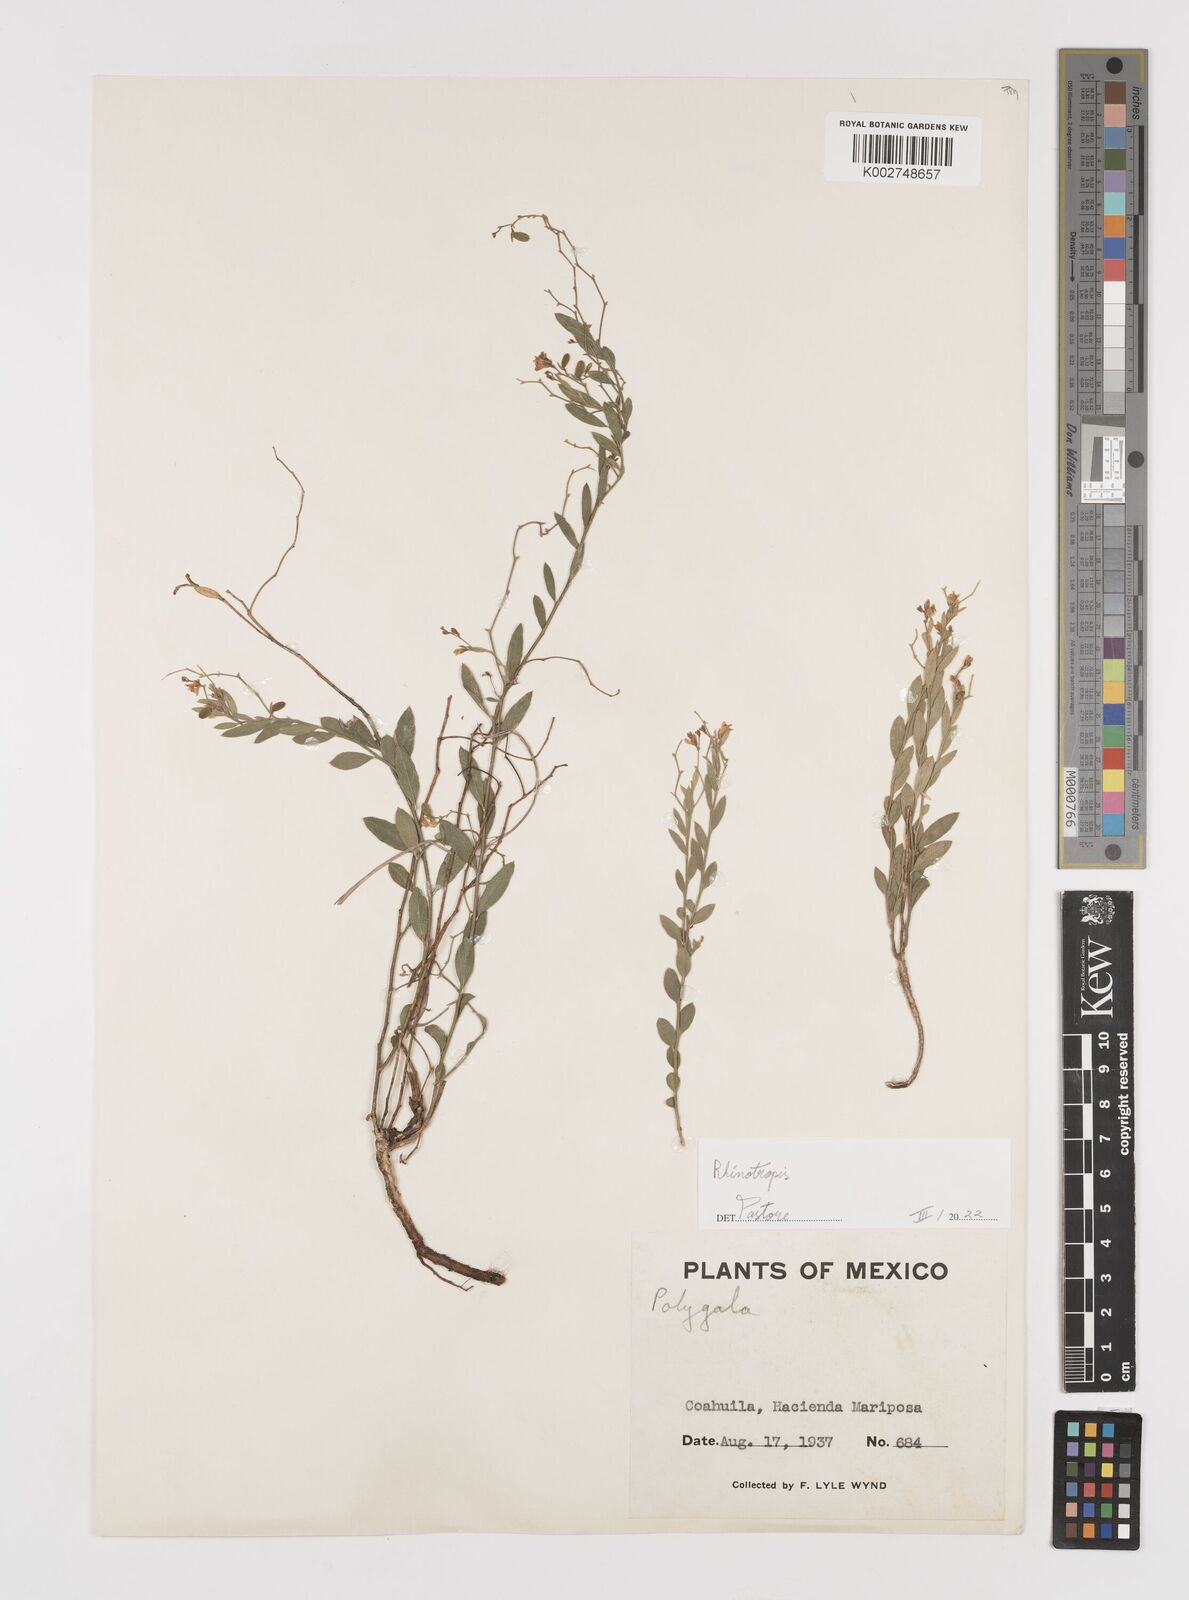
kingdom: Plantae
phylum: Tracheophyta
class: Magnoliopsida
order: Fabales
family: Polygalaceae
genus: Rhinotropis
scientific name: Rhinotropis desertorum
